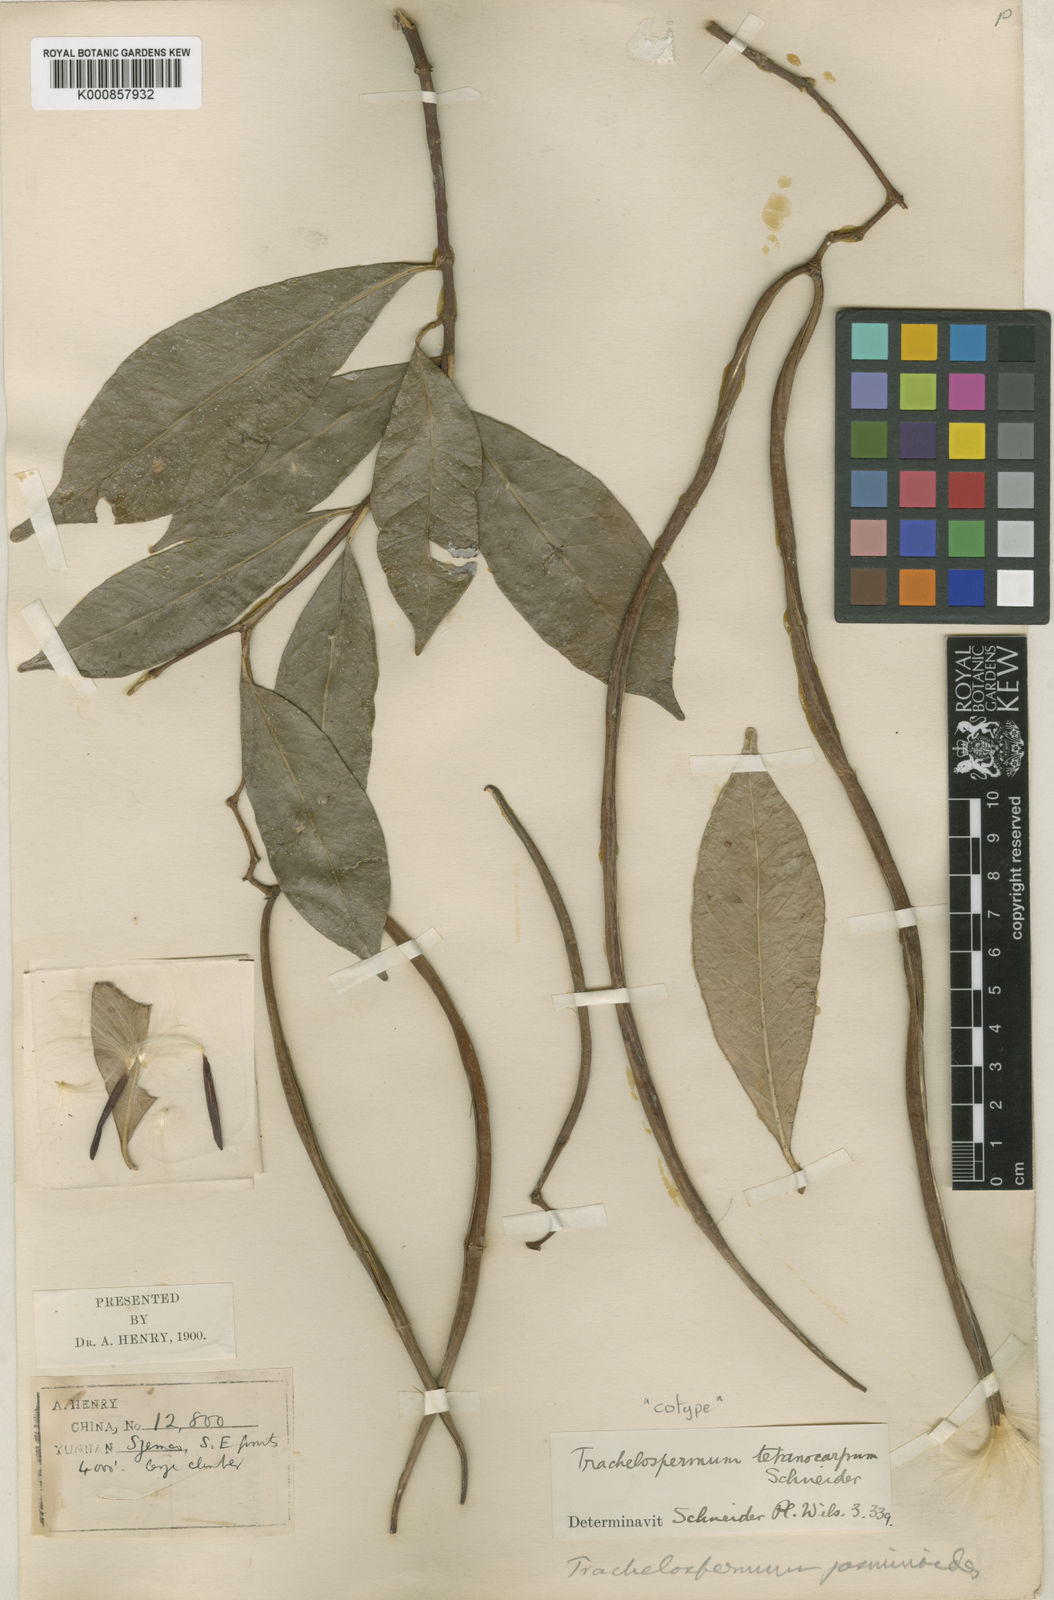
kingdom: Plantae
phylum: Tracheophyta
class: Magnoliopsida
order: Gentianales
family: Apocynaceae
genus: Trachelospermum
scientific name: Trachelospermum bodinieri
